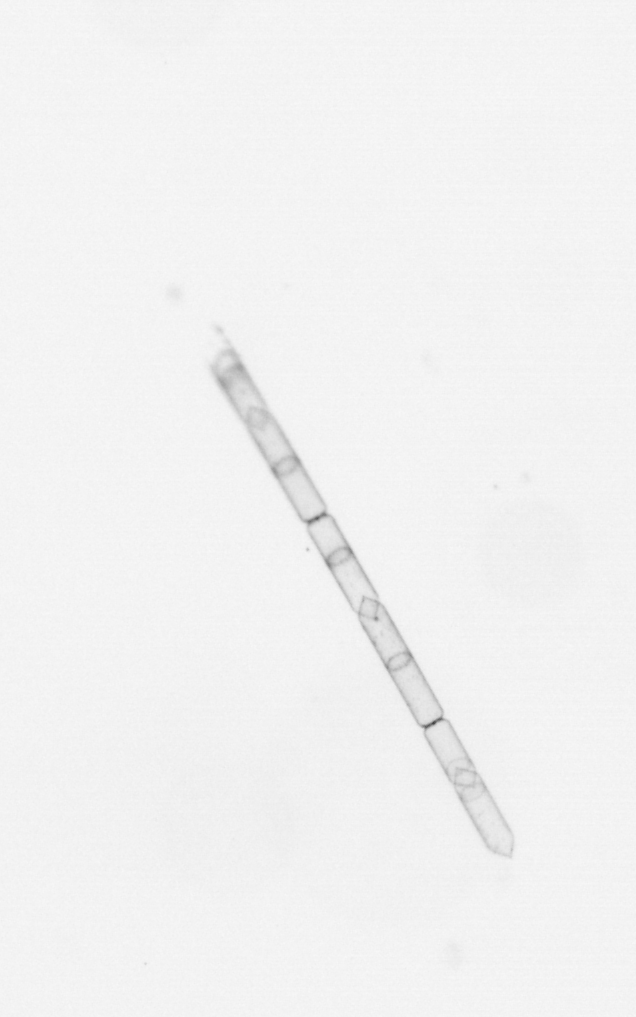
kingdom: Chromista
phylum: Ochrophyta
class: Bacillariophyceae
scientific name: Bacillariophyceae
